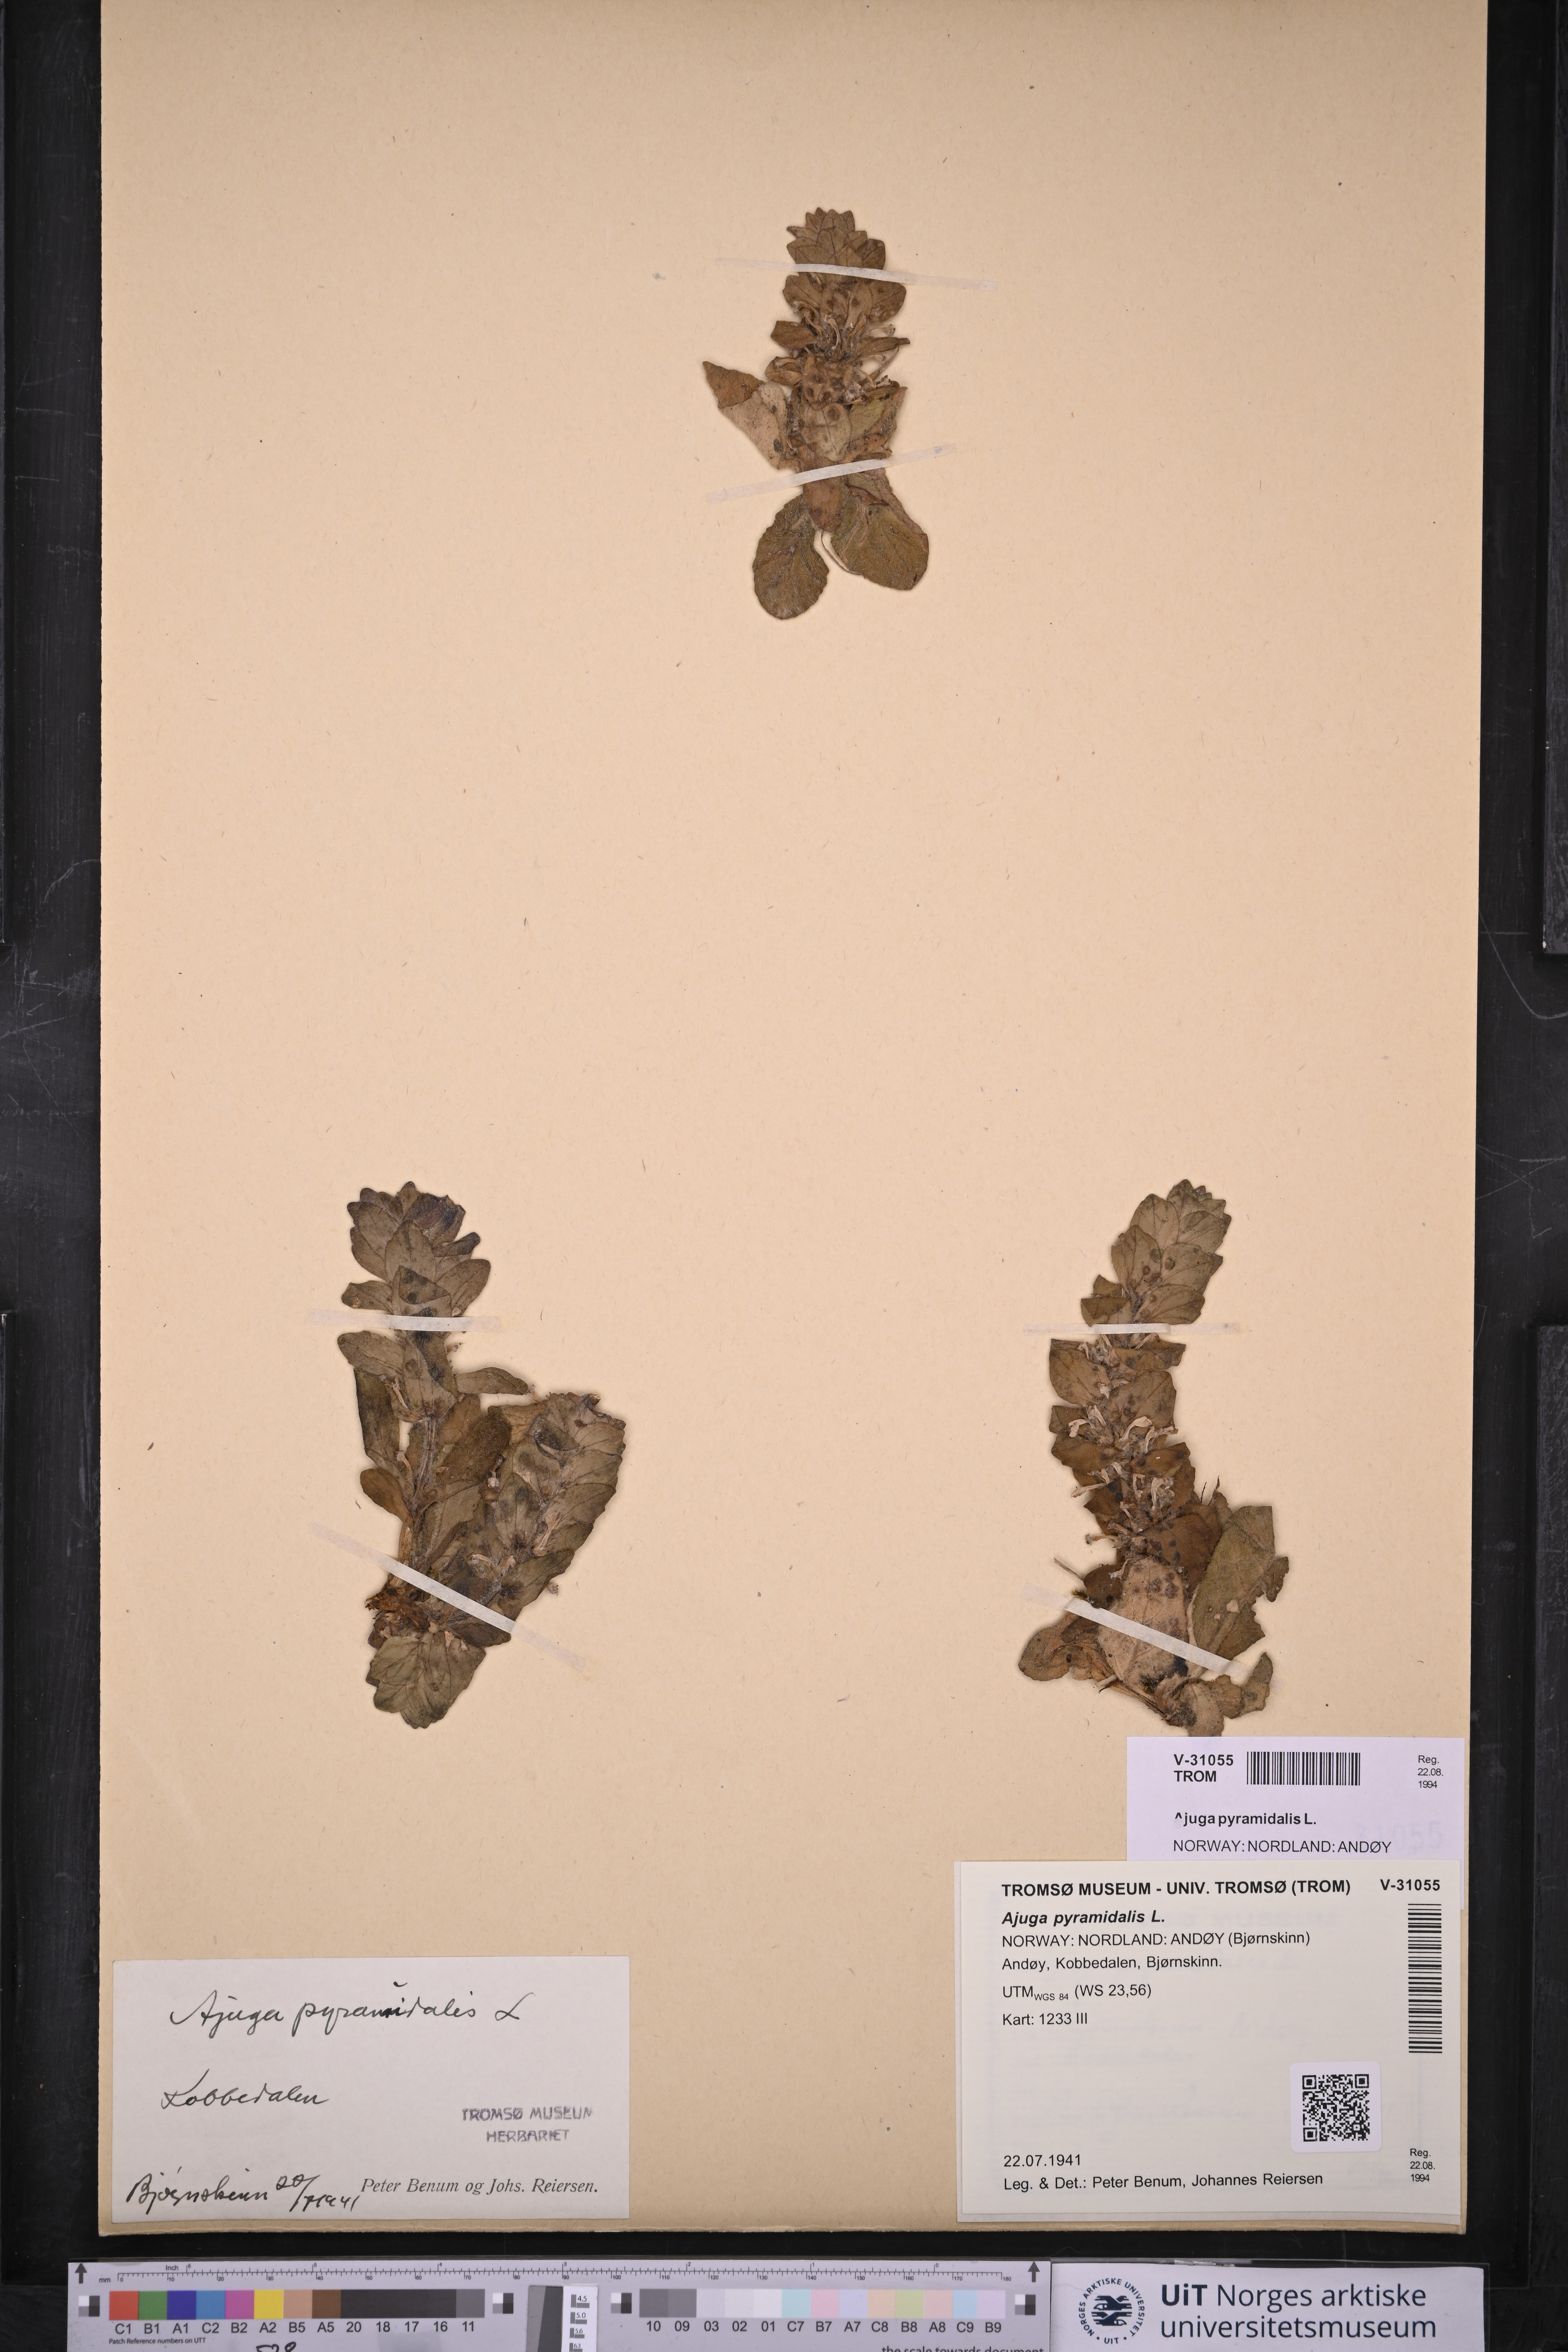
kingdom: Plantae
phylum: Tracheophyta
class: Magnoliopsida
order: Lamiales
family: Lamiaceae
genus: Ajuga
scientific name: Ajuga pyramidalis
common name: Pyramid bugle
